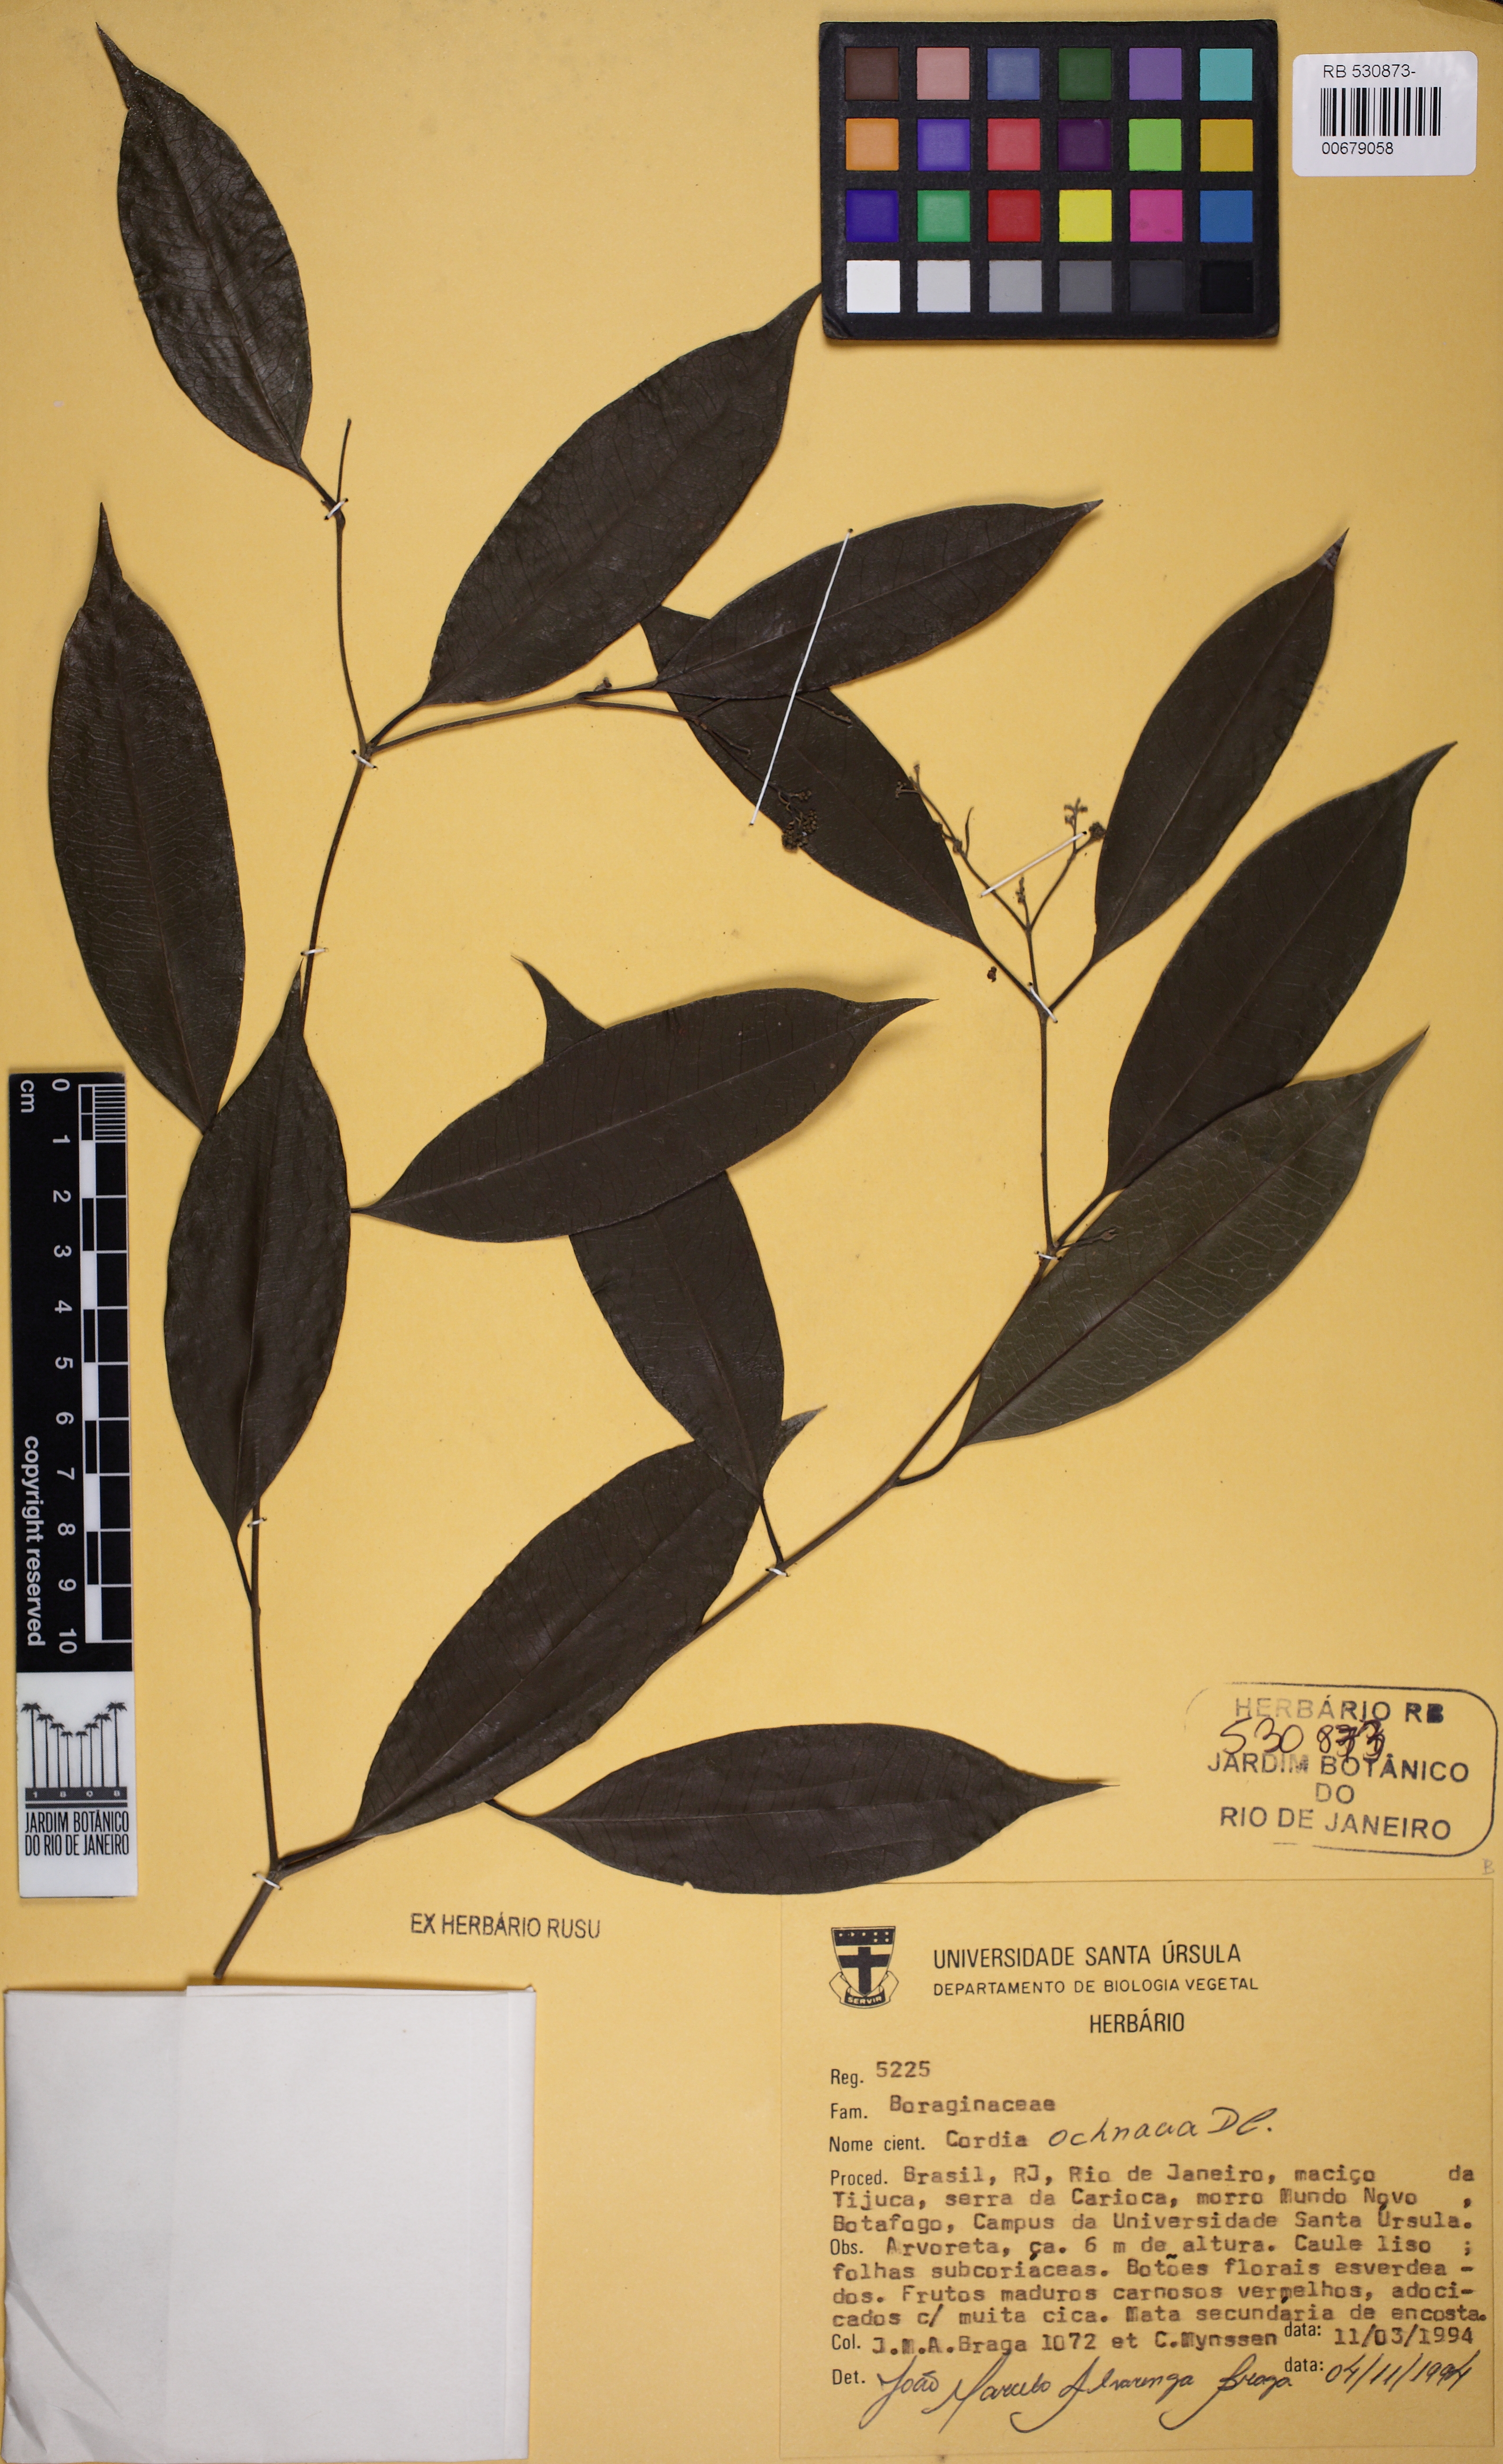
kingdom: Plantae
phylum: Tracheophyta
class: Magnoliopsida
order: Boraginales
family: Cordiaceae
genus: Cordia
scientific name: Cordia ochnacea
